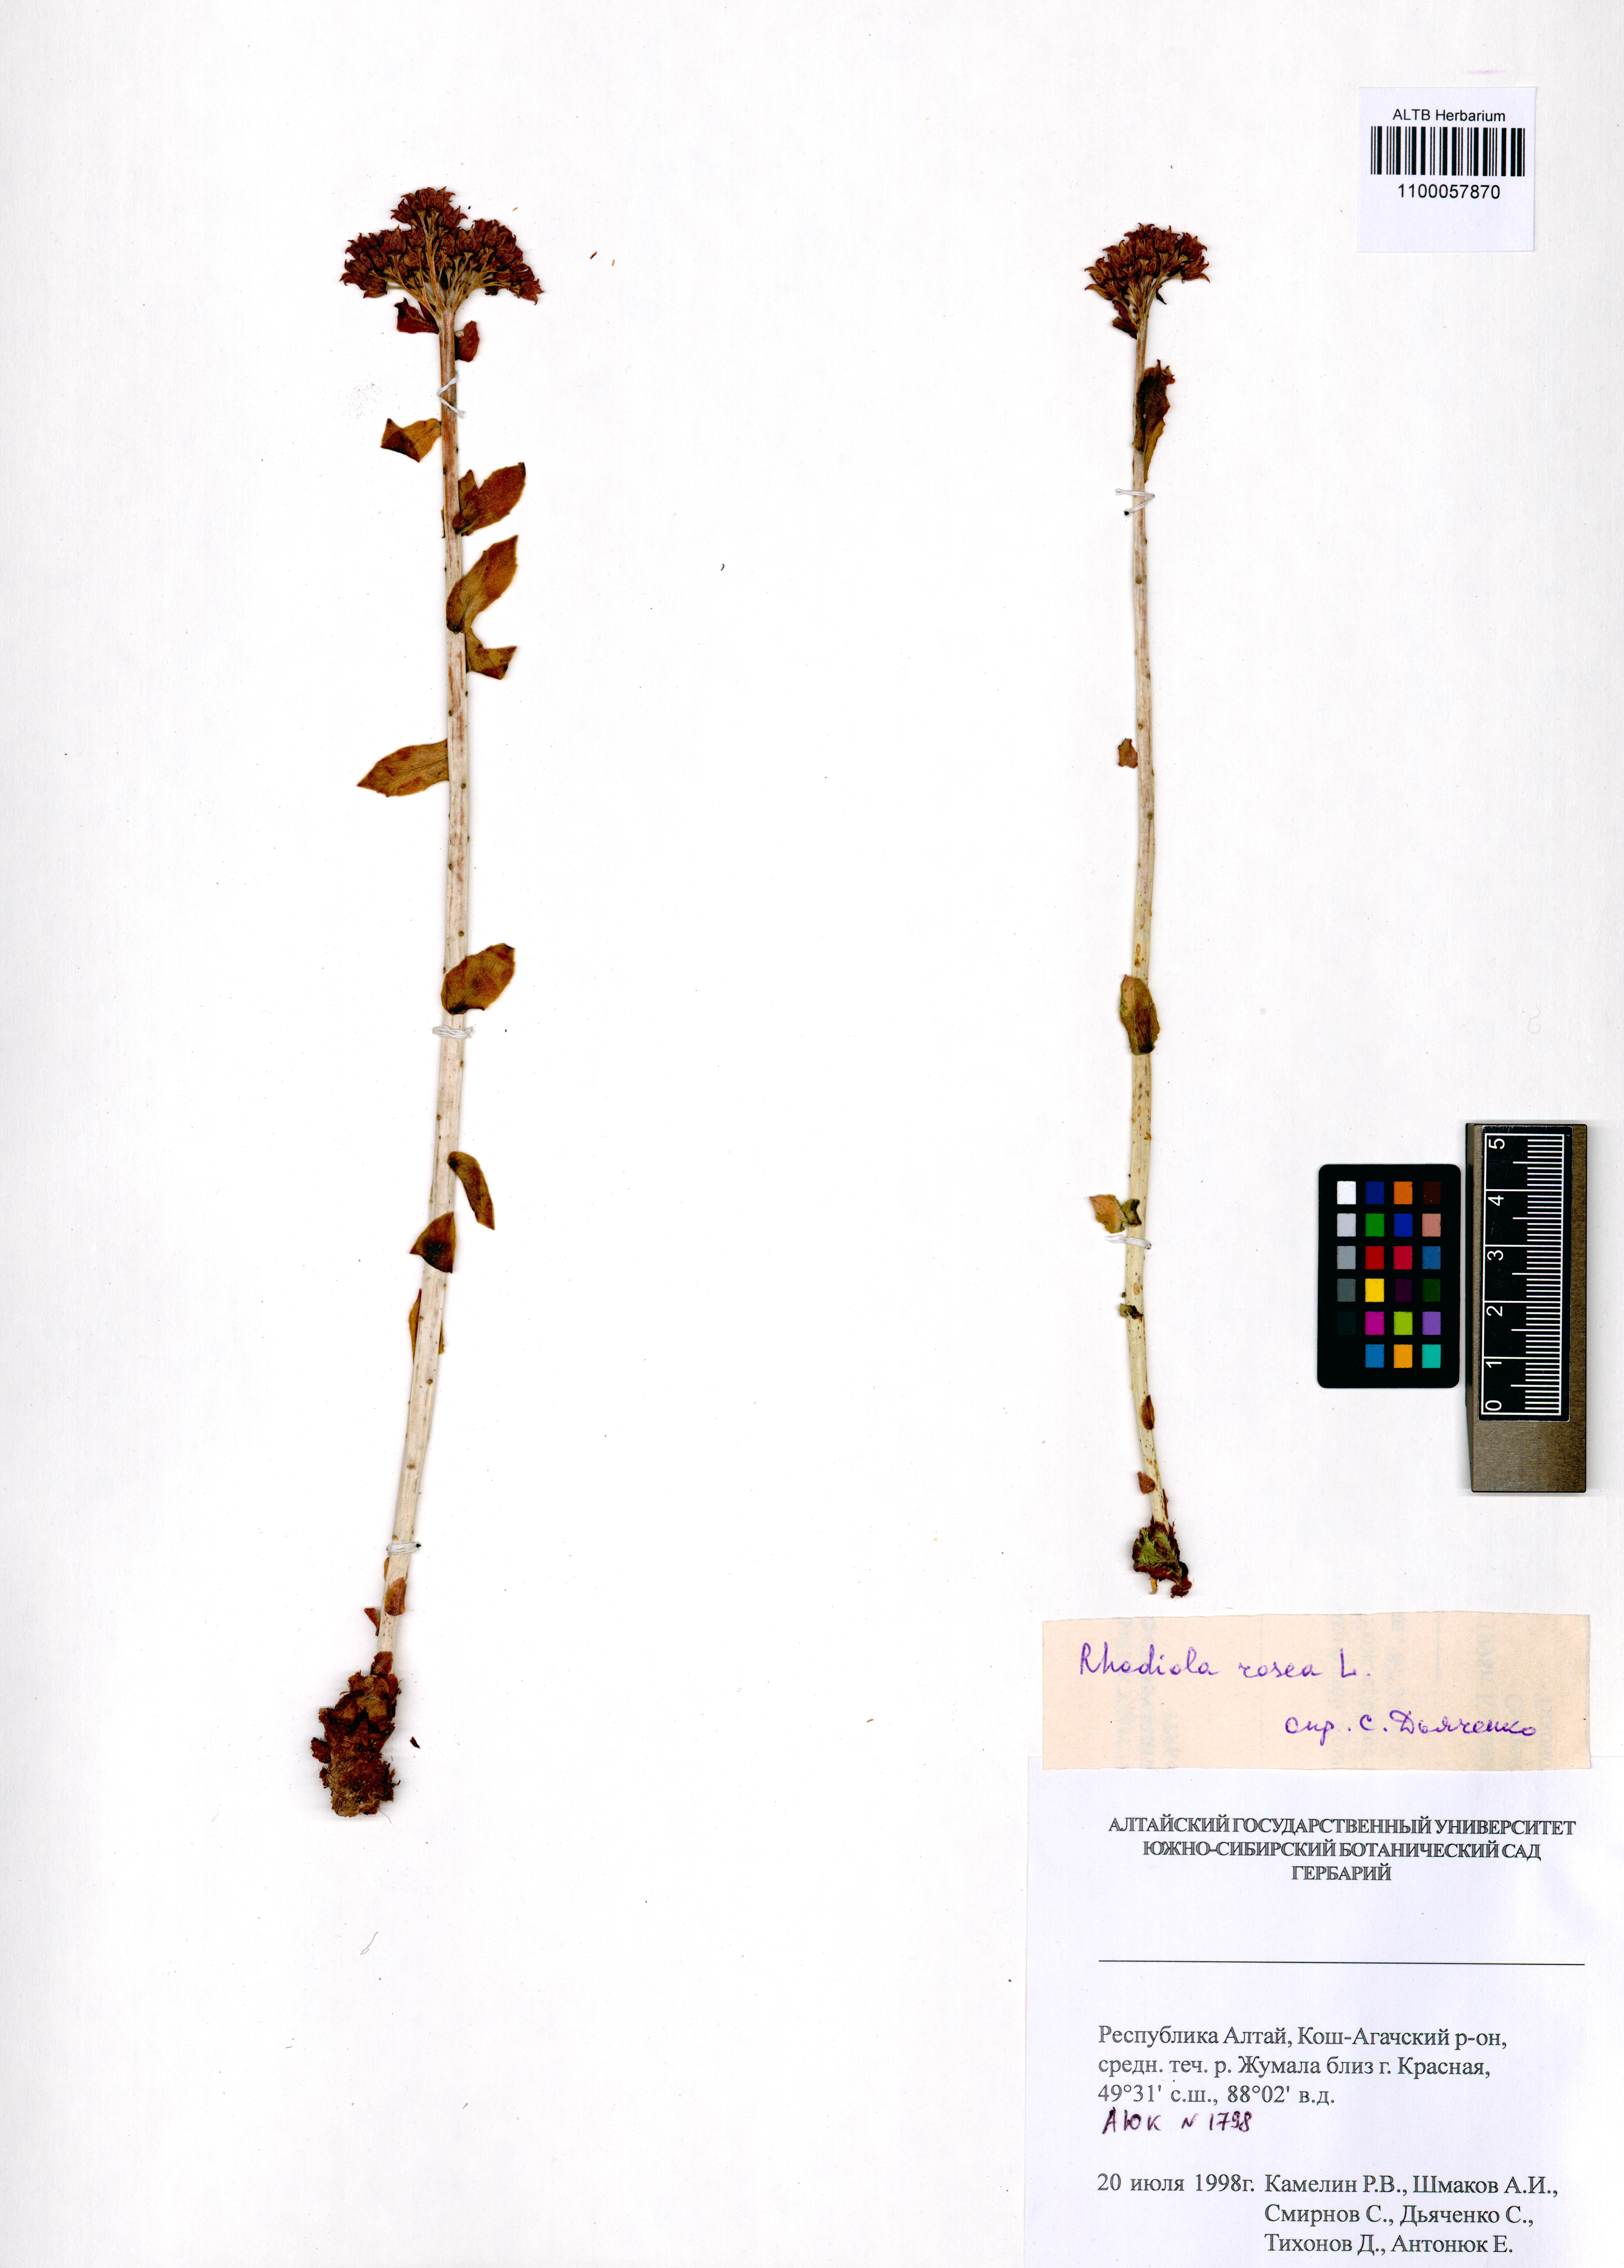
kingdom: Plantae
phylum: Tracheophyta
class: Magnoliopsida
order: Saxifragales
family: Crassulaceae
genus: Rhodiola
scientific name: Rhodiola rosea
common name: Roseroot
